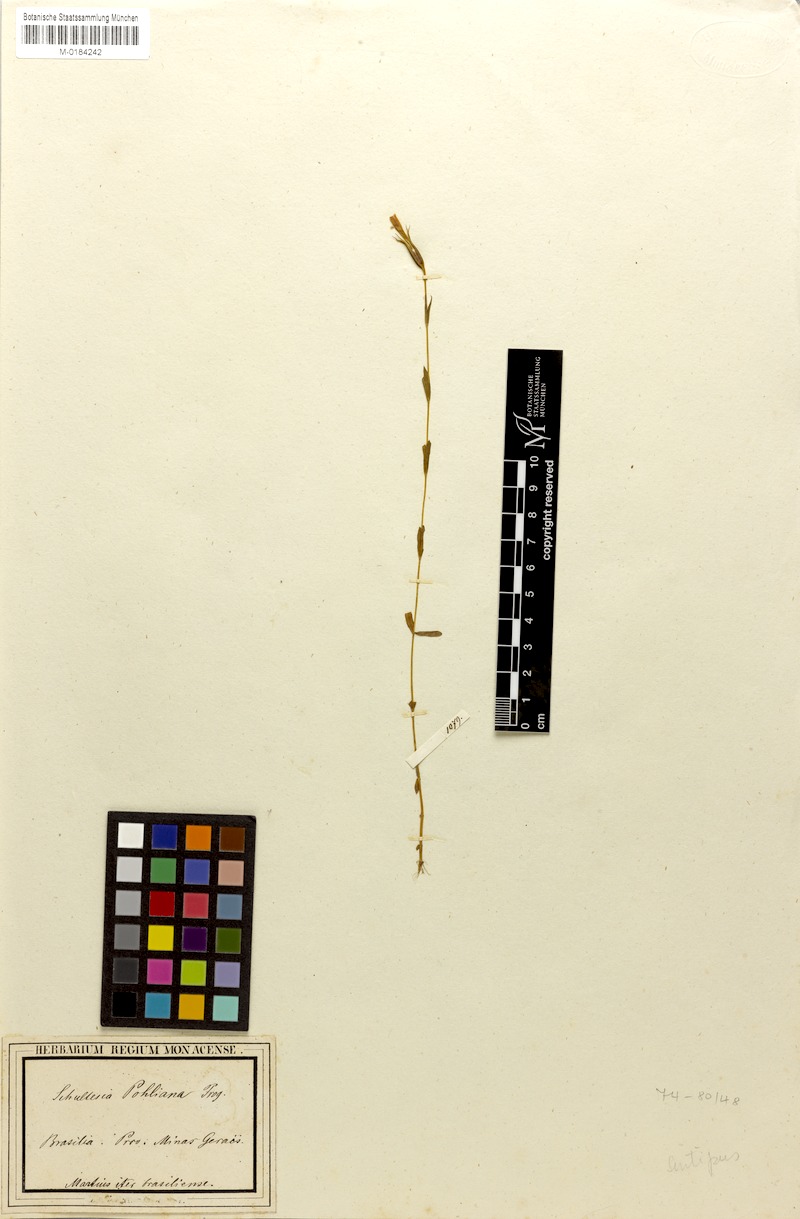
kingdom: Plantae
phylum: Tracheophyta
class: Magnoliopsida
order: Gentianales
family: Gentianaceae
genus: Schultesia
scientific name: Schultesia pohliana
